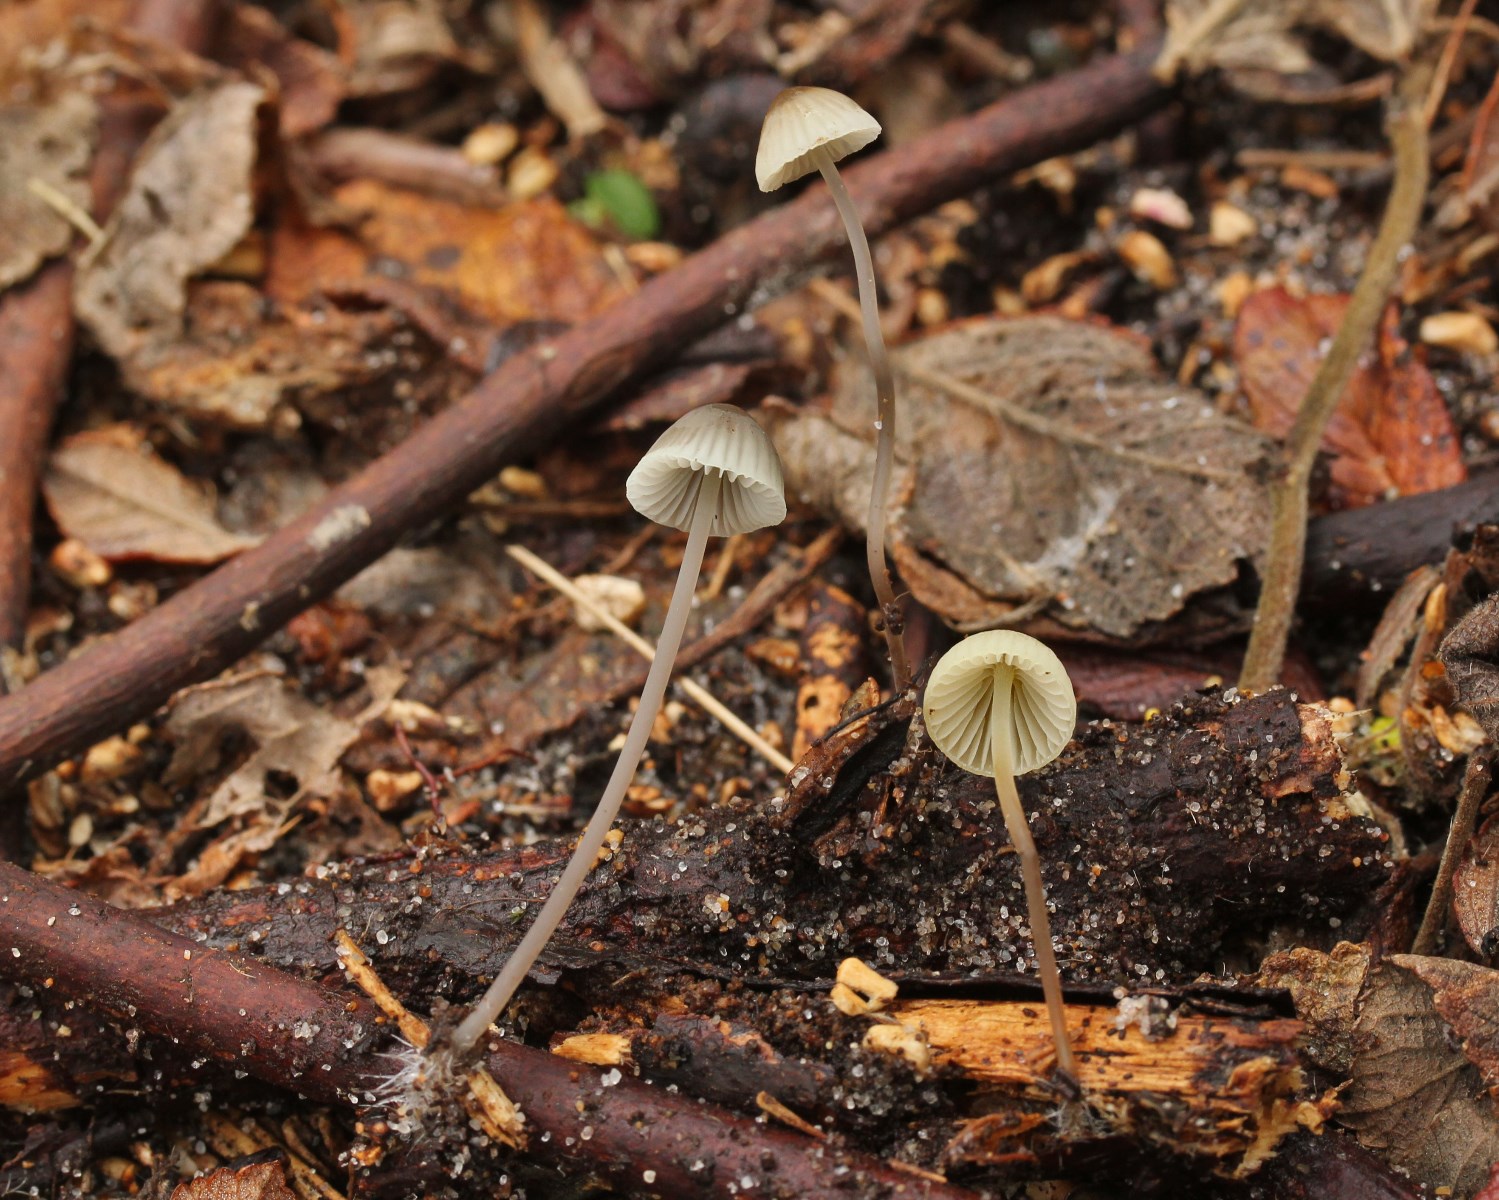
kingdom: Fungi
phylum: Basidiomycota
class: Agaricomycetes
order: Agaricales
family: Mycenaceae
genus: Mycena
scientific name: Mycena arcangeliana
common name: oliven-huesvamp
